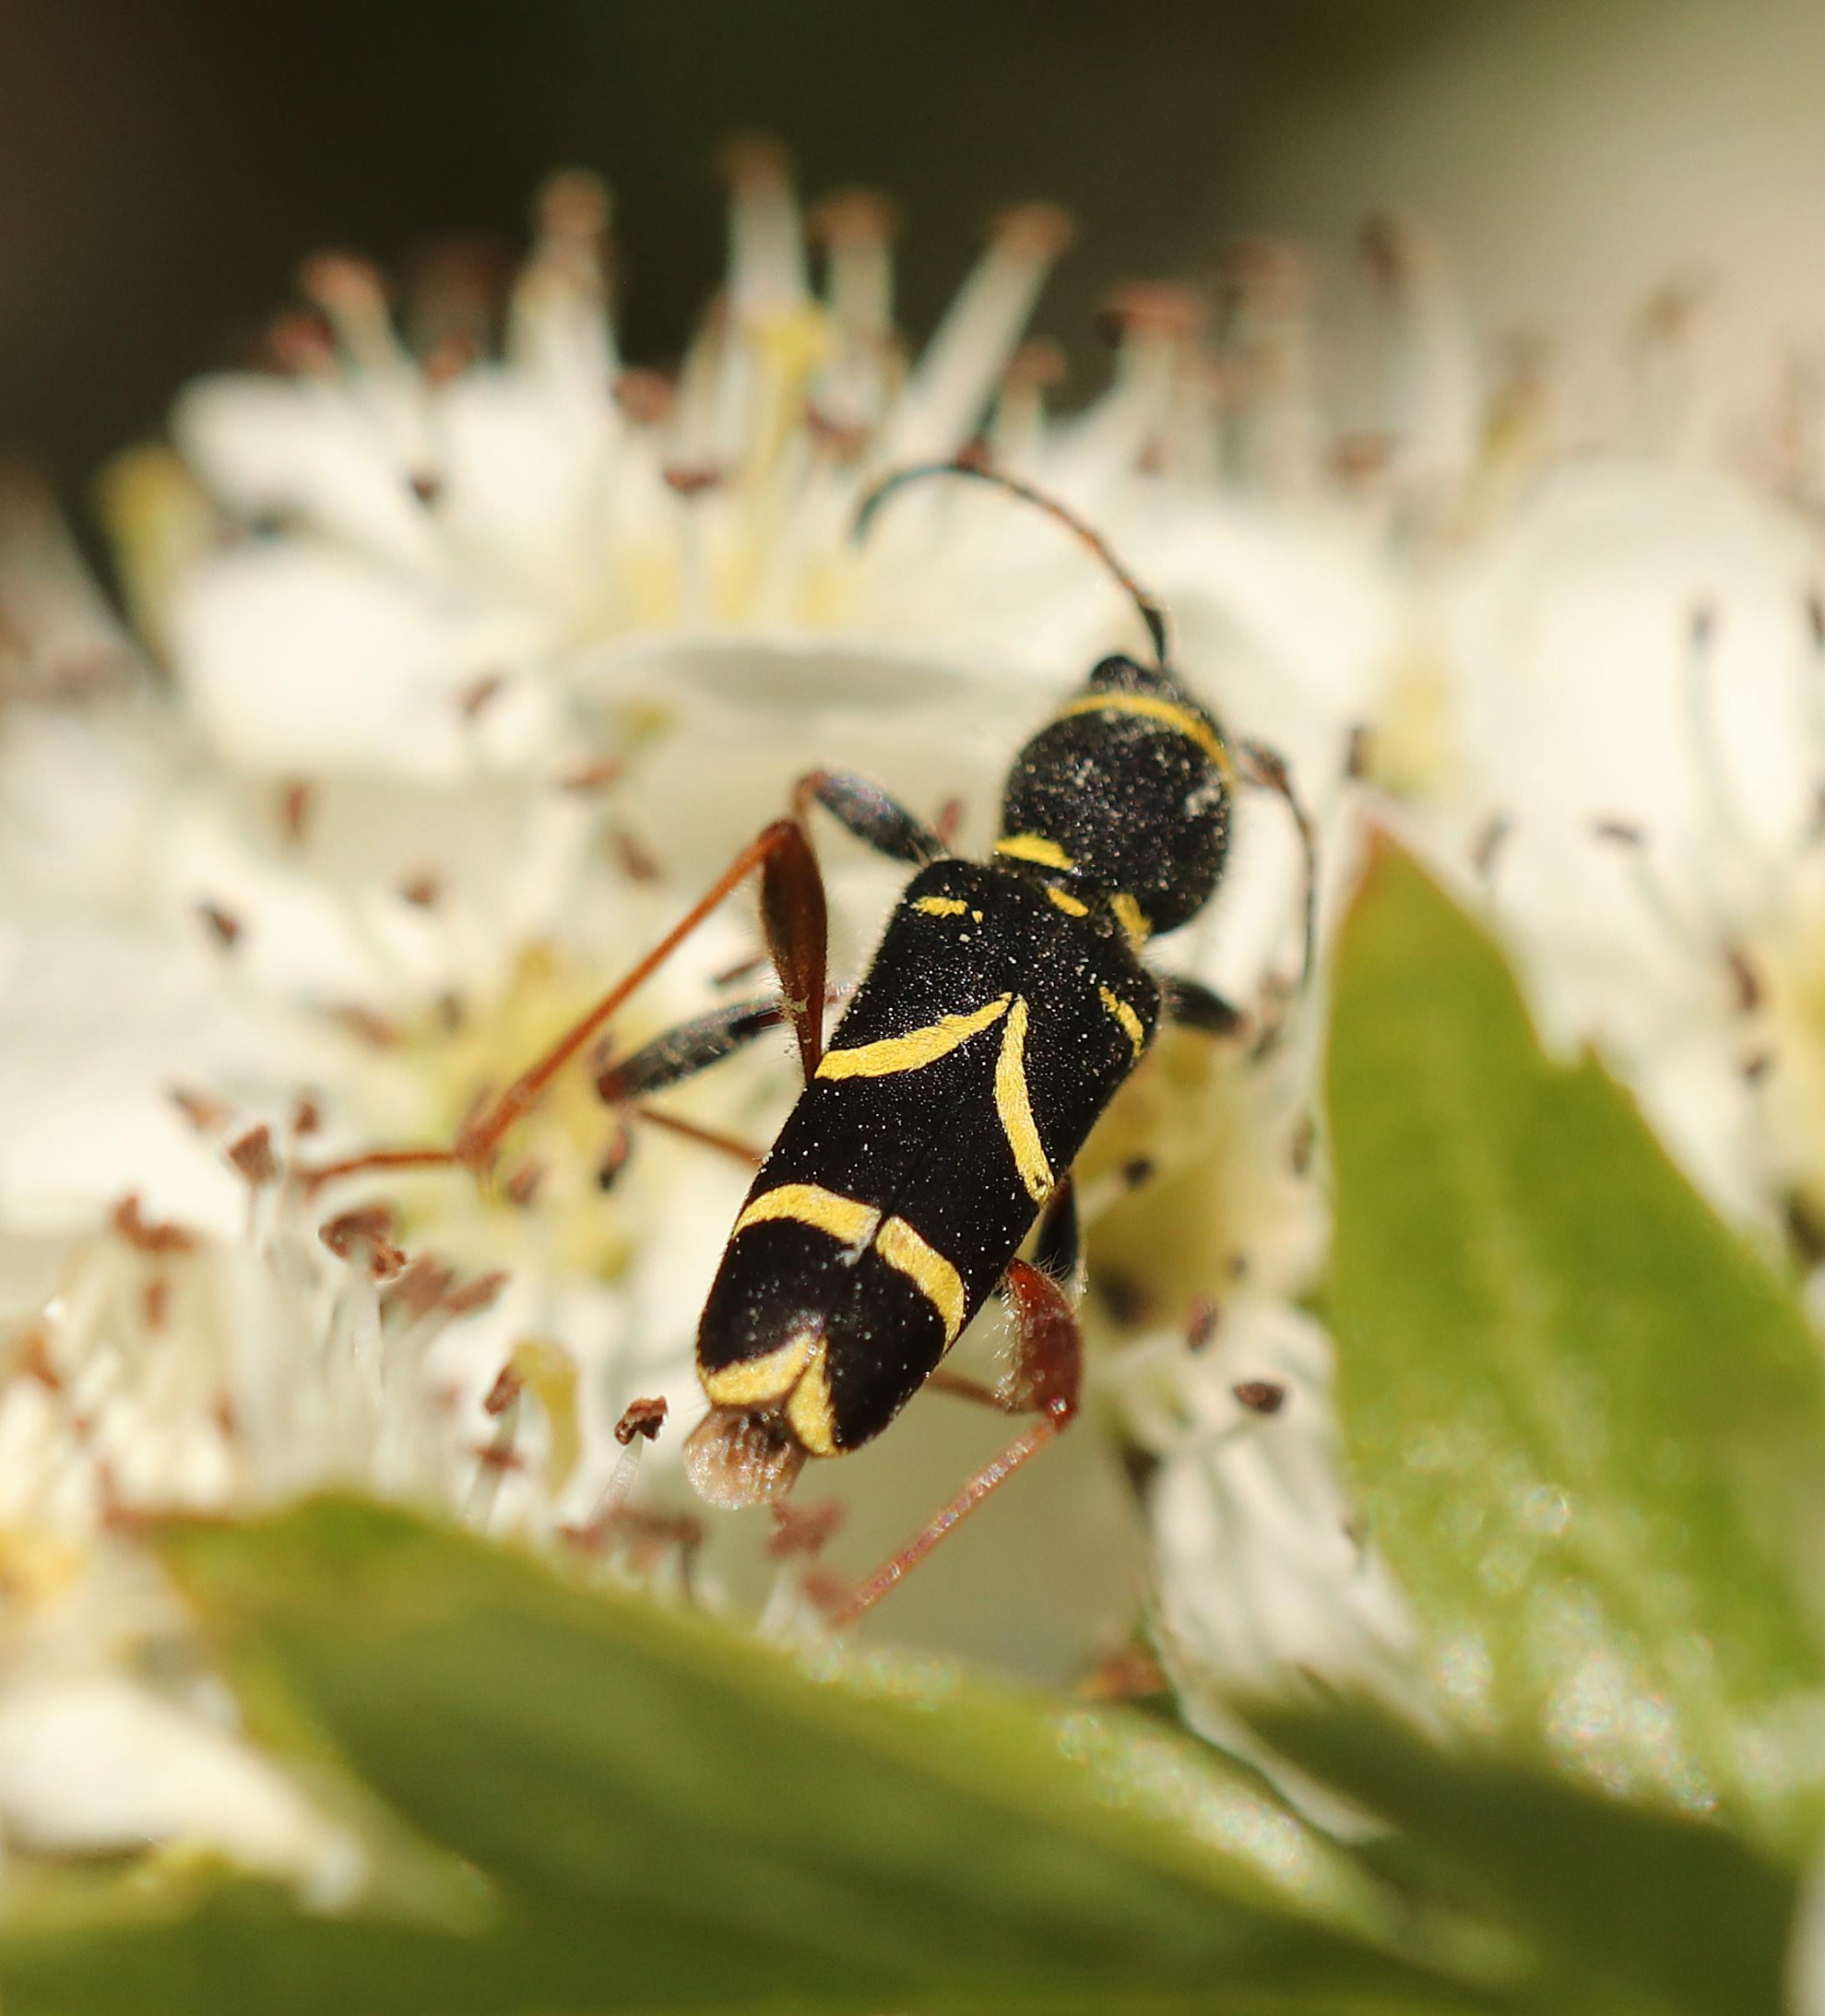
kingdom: Animalia
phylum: Arthropoda
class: Insecta
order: Coleoptera
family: Cerambycidae
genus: Clytus
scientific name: Clytus arietis
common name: Lille hvepsebuk
